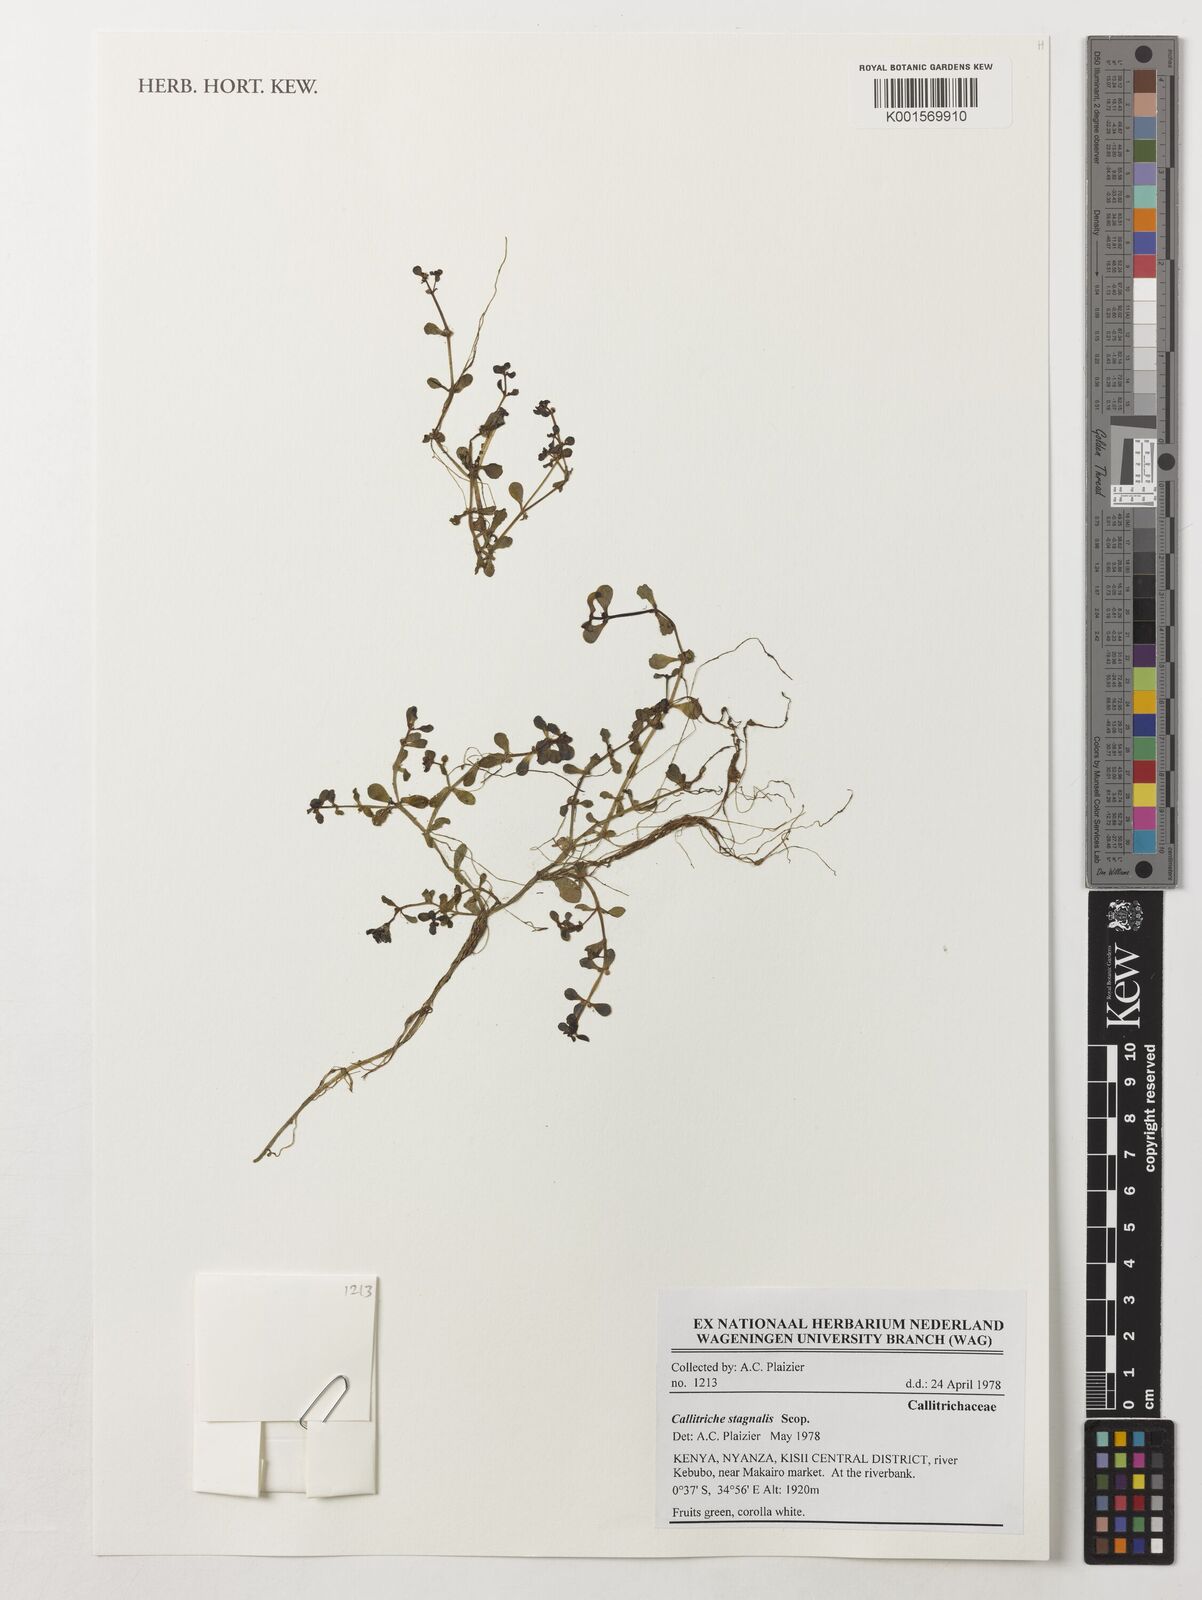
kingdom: Plantae
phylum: Tracheophyta
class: Magnoliopsida
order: Lamiales
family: Plantaginaceae
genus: Callitriche
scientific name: Callitriche stagnalis
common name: Common water-starwort
